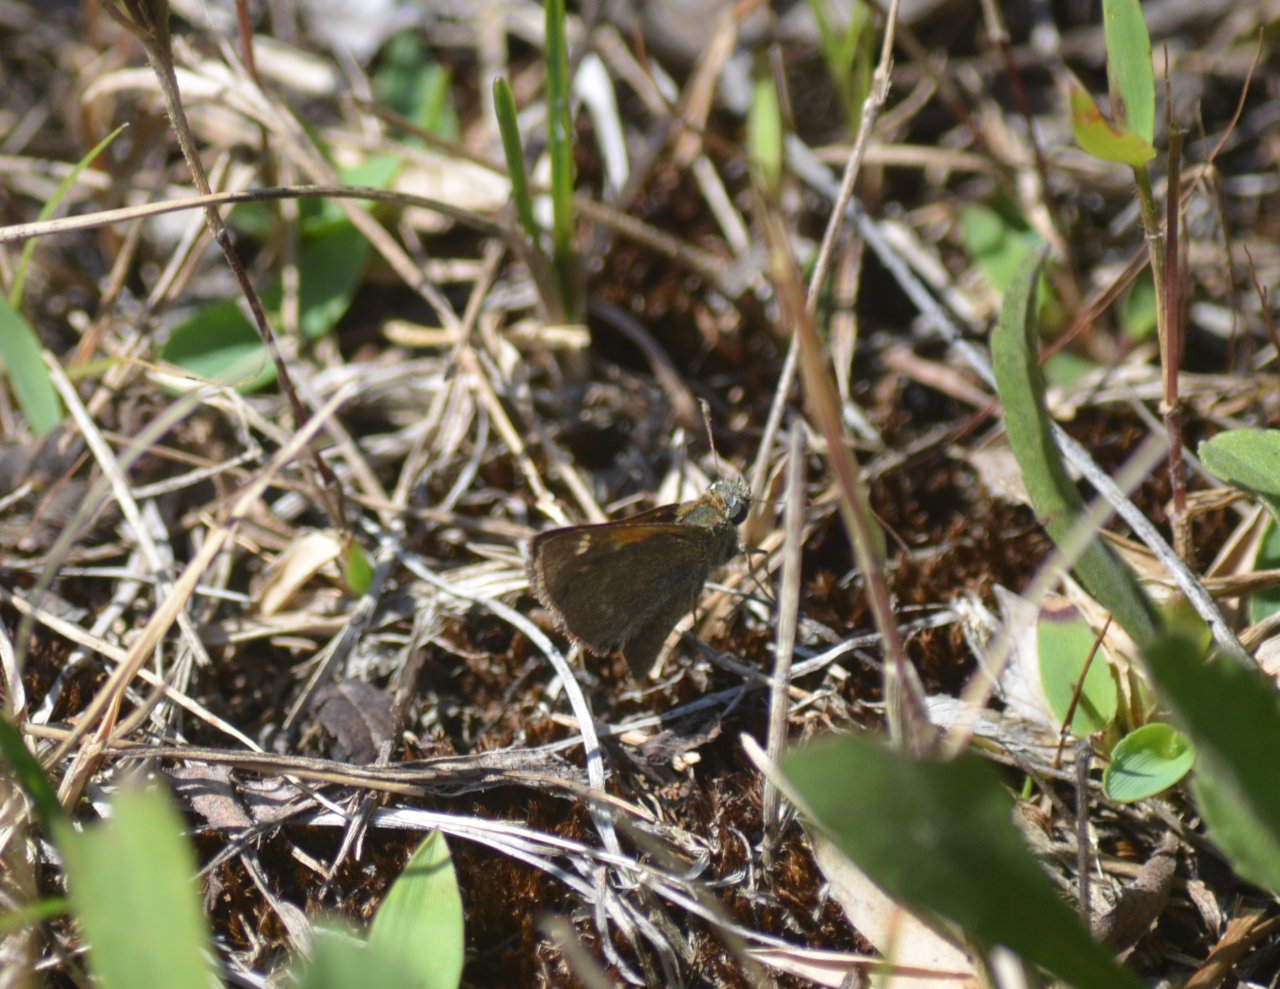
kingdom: Animalia
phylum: Arthropoda
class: Insecta
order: Lepidoptera
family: Hesperiidae
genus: Polites
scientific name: Polites themistocles
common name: Tawny-edged Skipper
